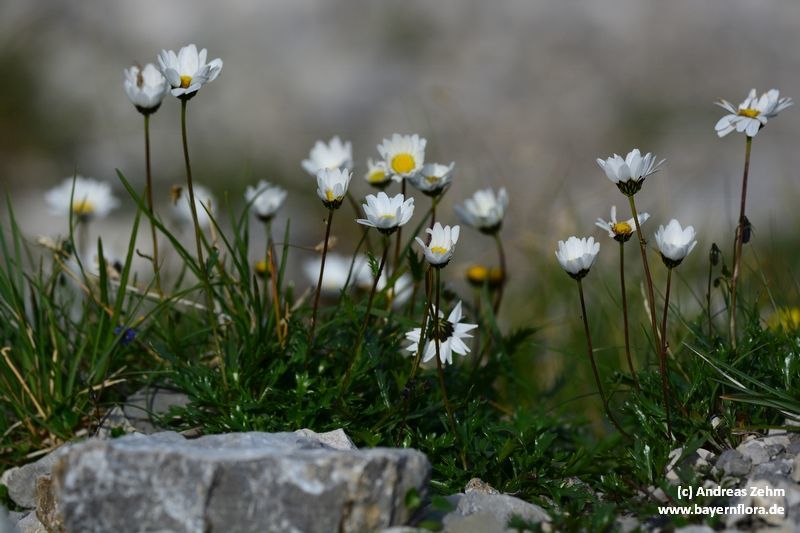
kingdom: Plantae
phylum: Tracheophyta
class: Magnoliopsida
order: Asterales
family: Asteraceae
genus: Leucanthemum
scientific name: Leucanthemum halleri
